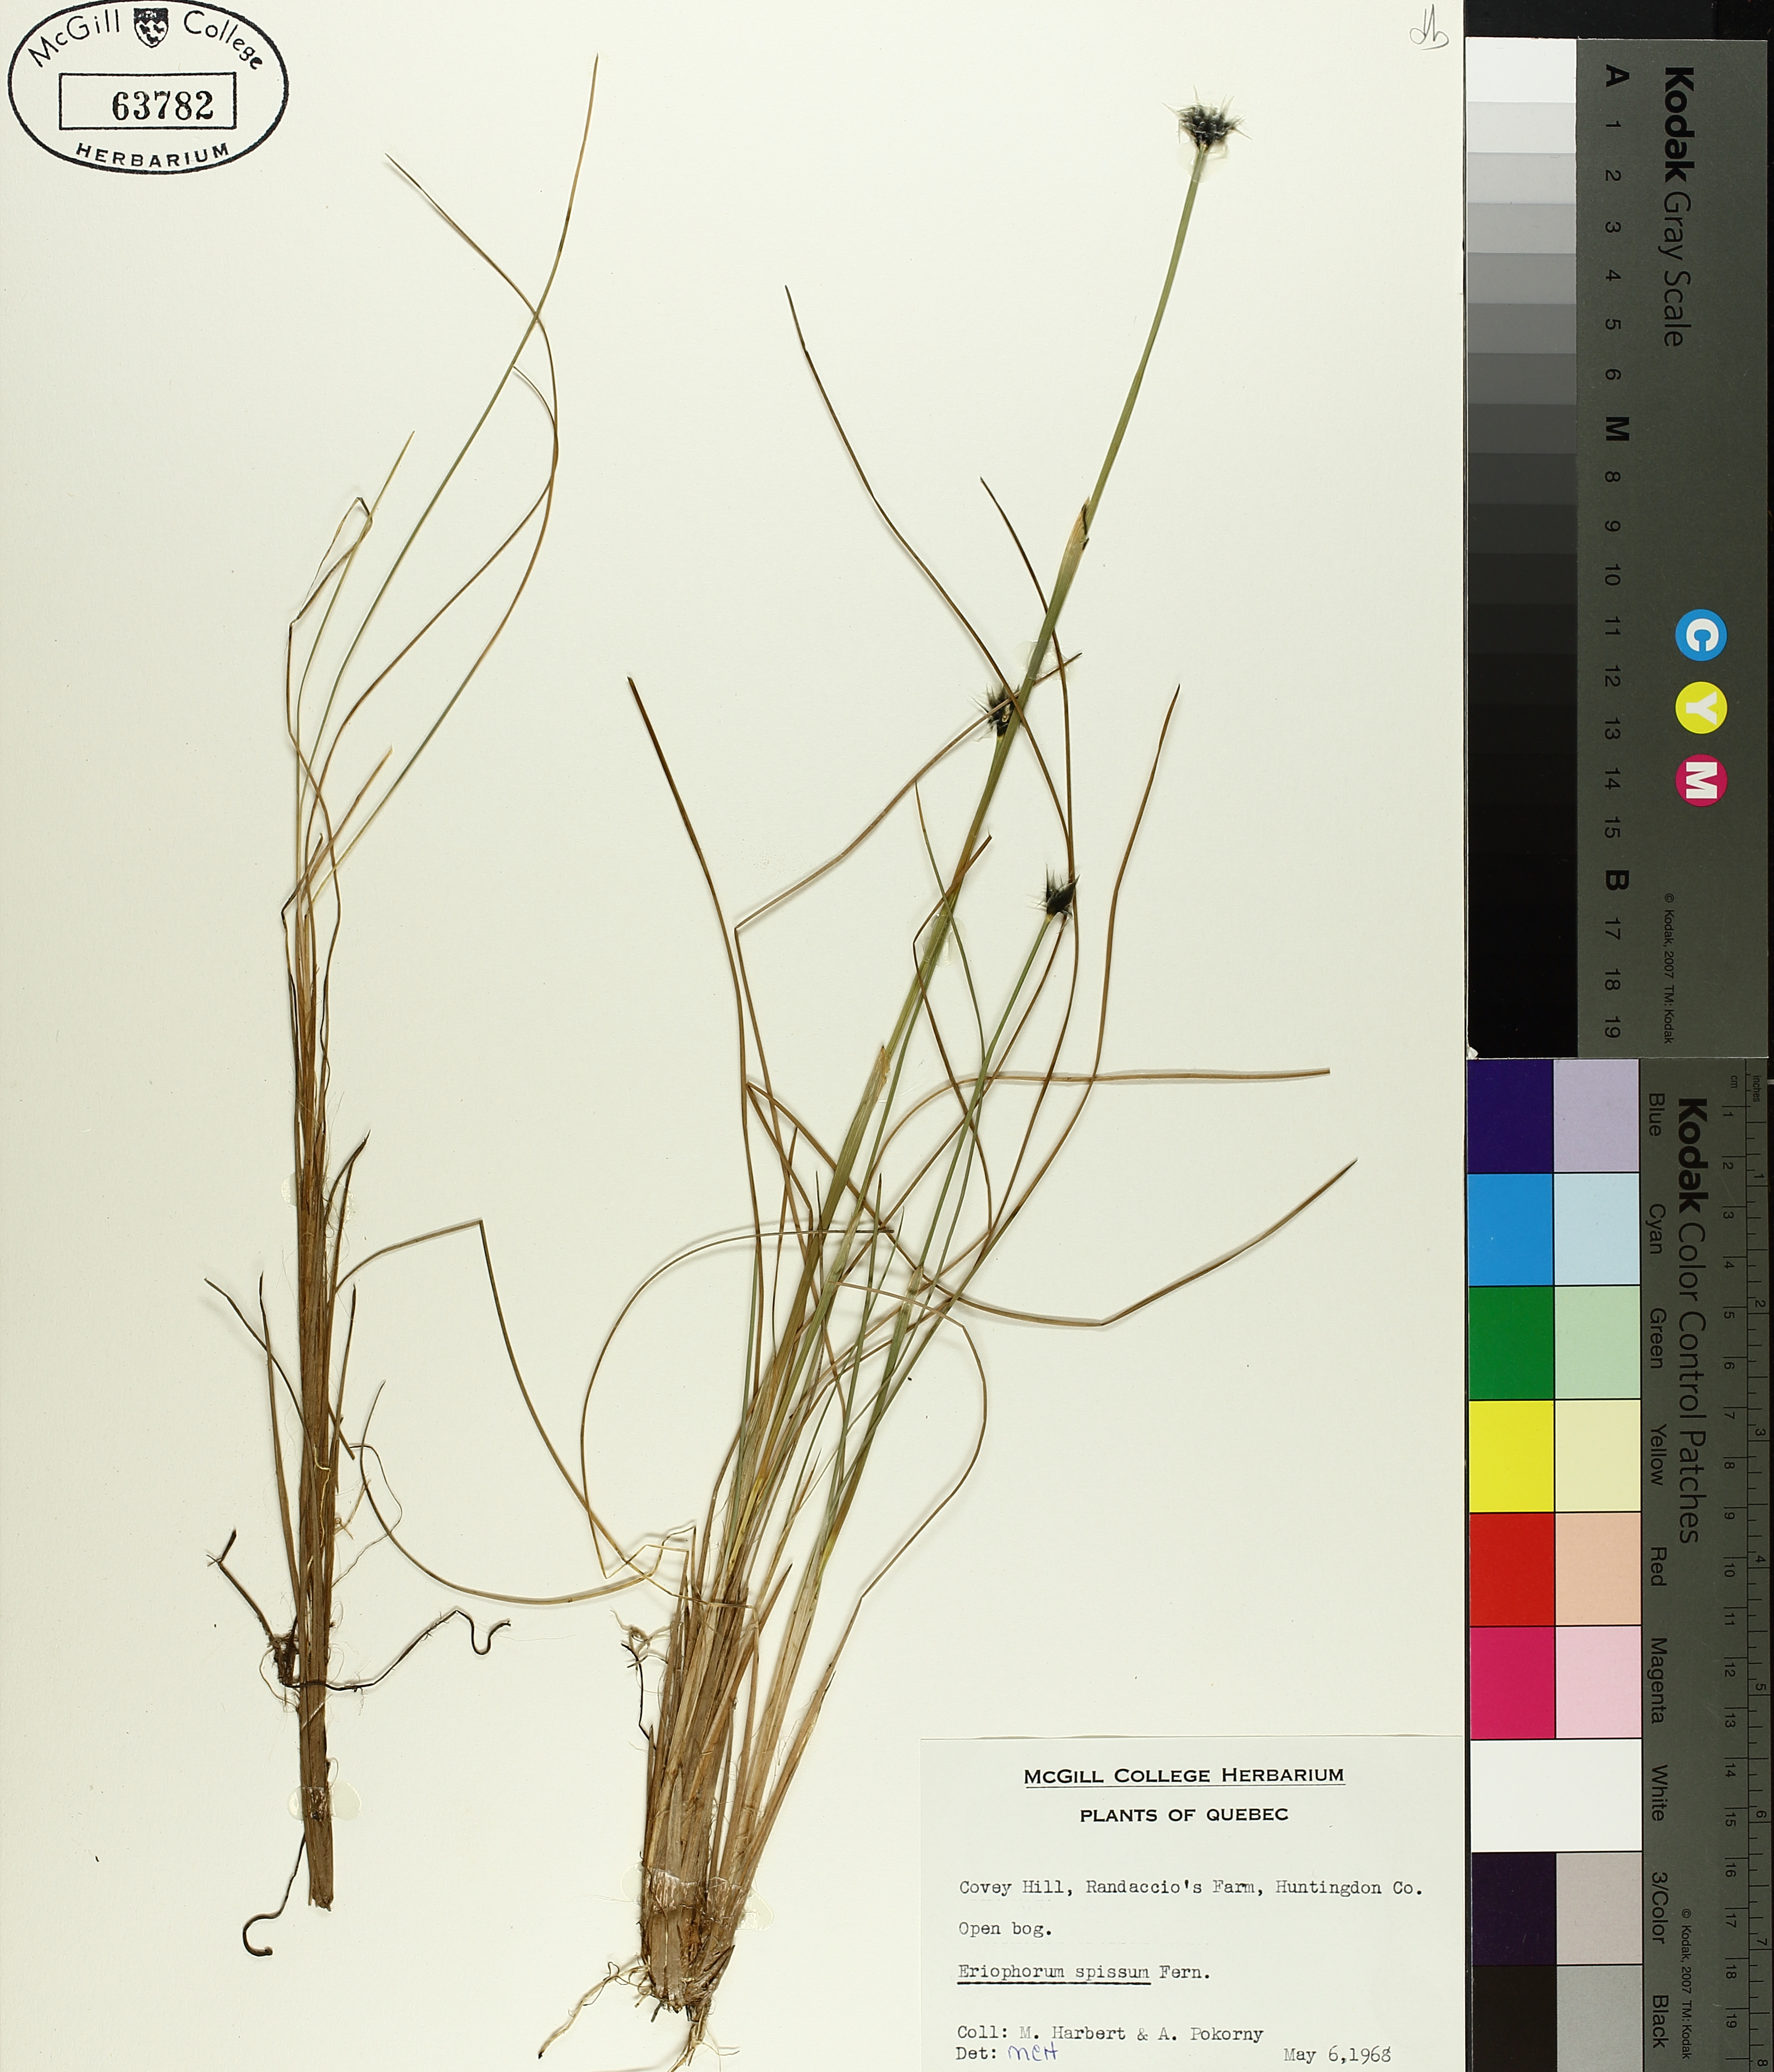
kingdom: Plantae
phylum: Tracheophyta
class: Liliopsida
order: Poales
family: Cyperaceae
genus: Eriophorum
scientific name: Eriophorum vaginatum
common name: Hare's-tail cottongrass
